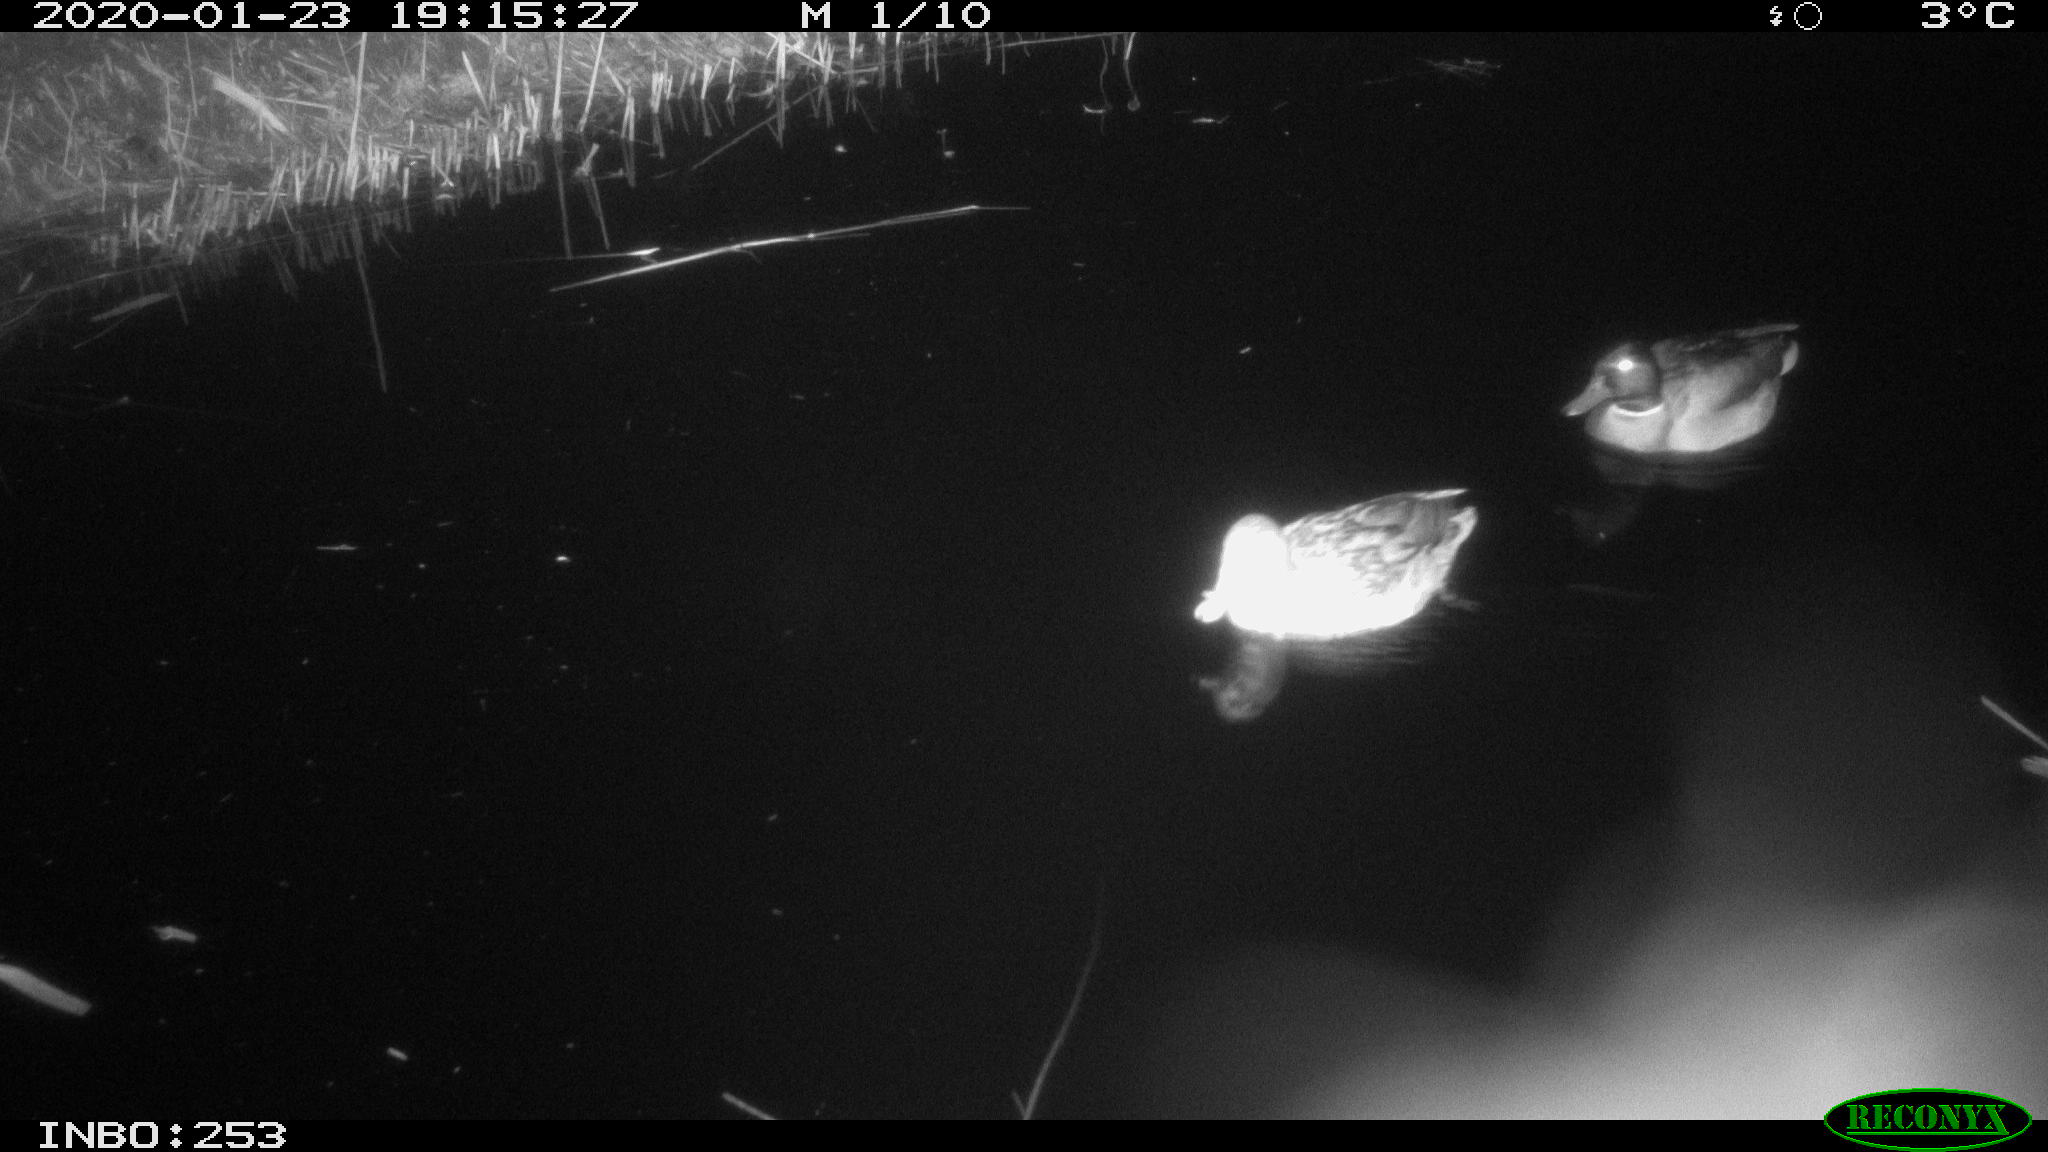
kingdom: Animalia
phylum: Chordata
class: Aves
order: Anseriformes
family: Anatidae
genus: Anas
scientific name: Anas platyrhynchos
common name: Mallard
